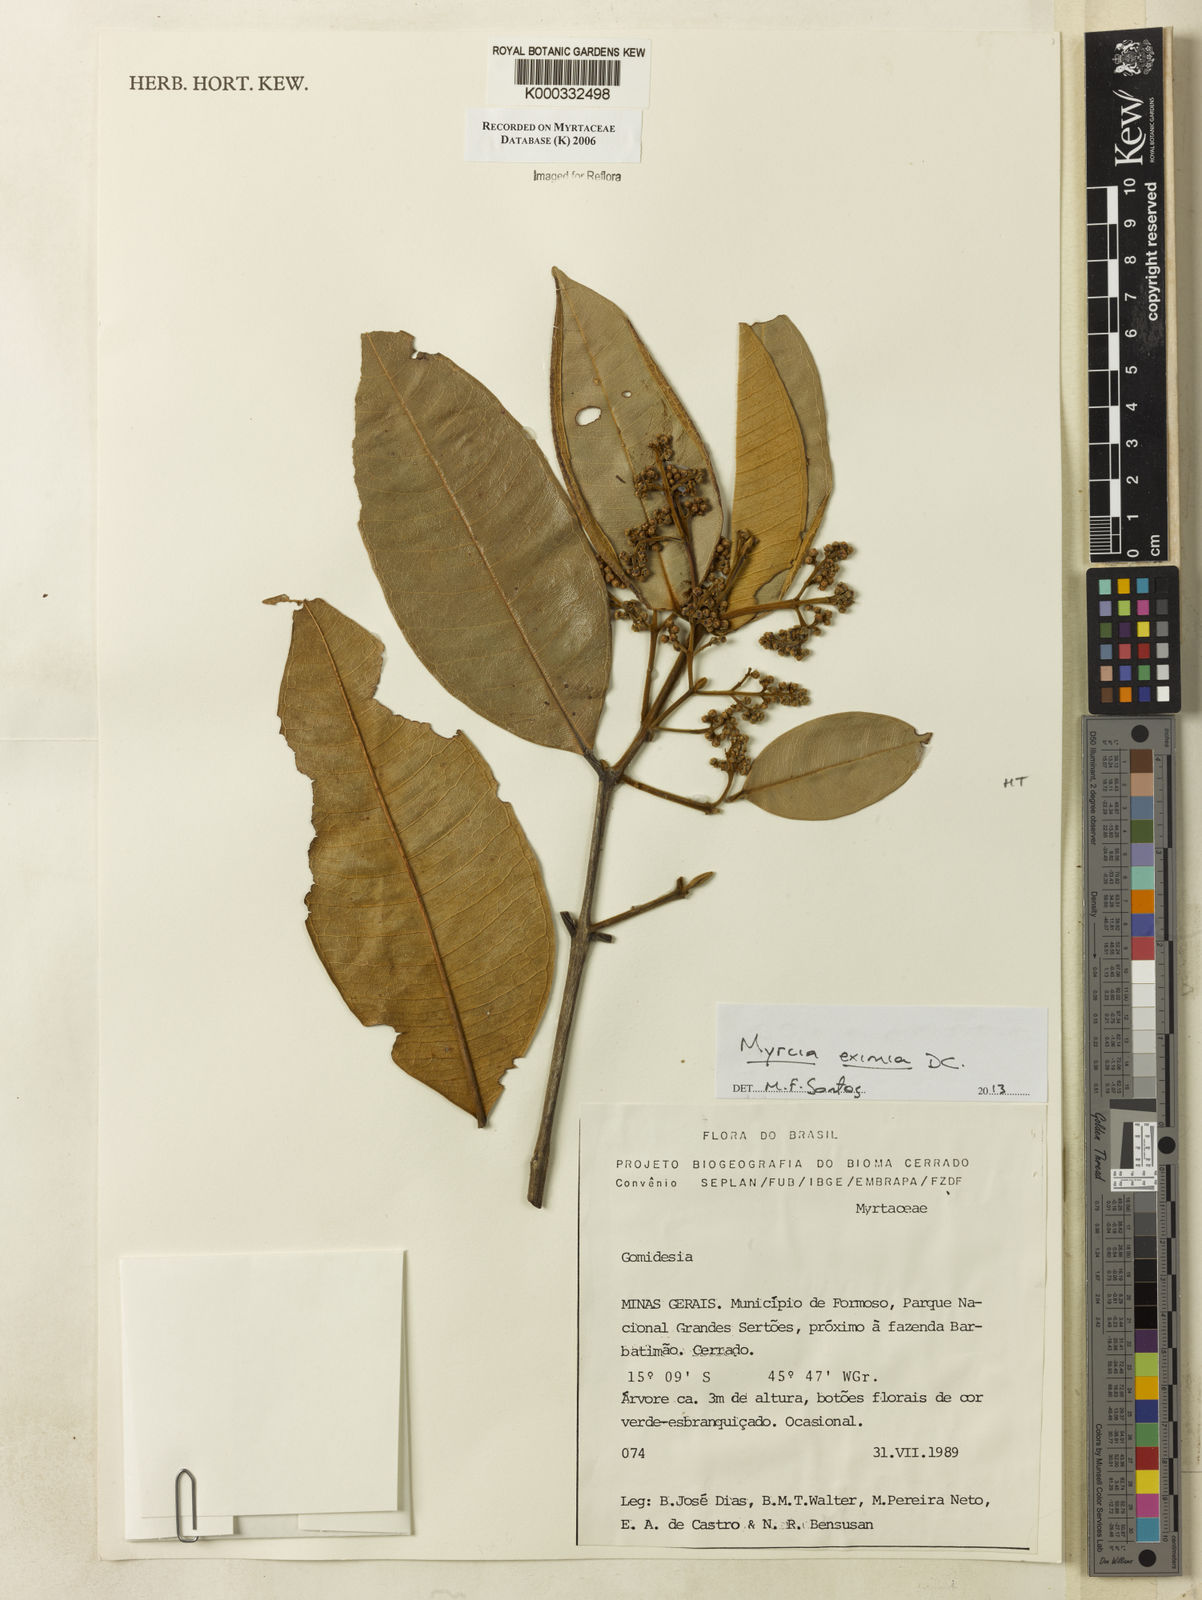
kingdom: Plantae
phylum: Tracheophyta
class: Magnoliopsida
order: Myrtales
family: Myrtaceae
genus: Myrcia
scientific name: Myrcia
